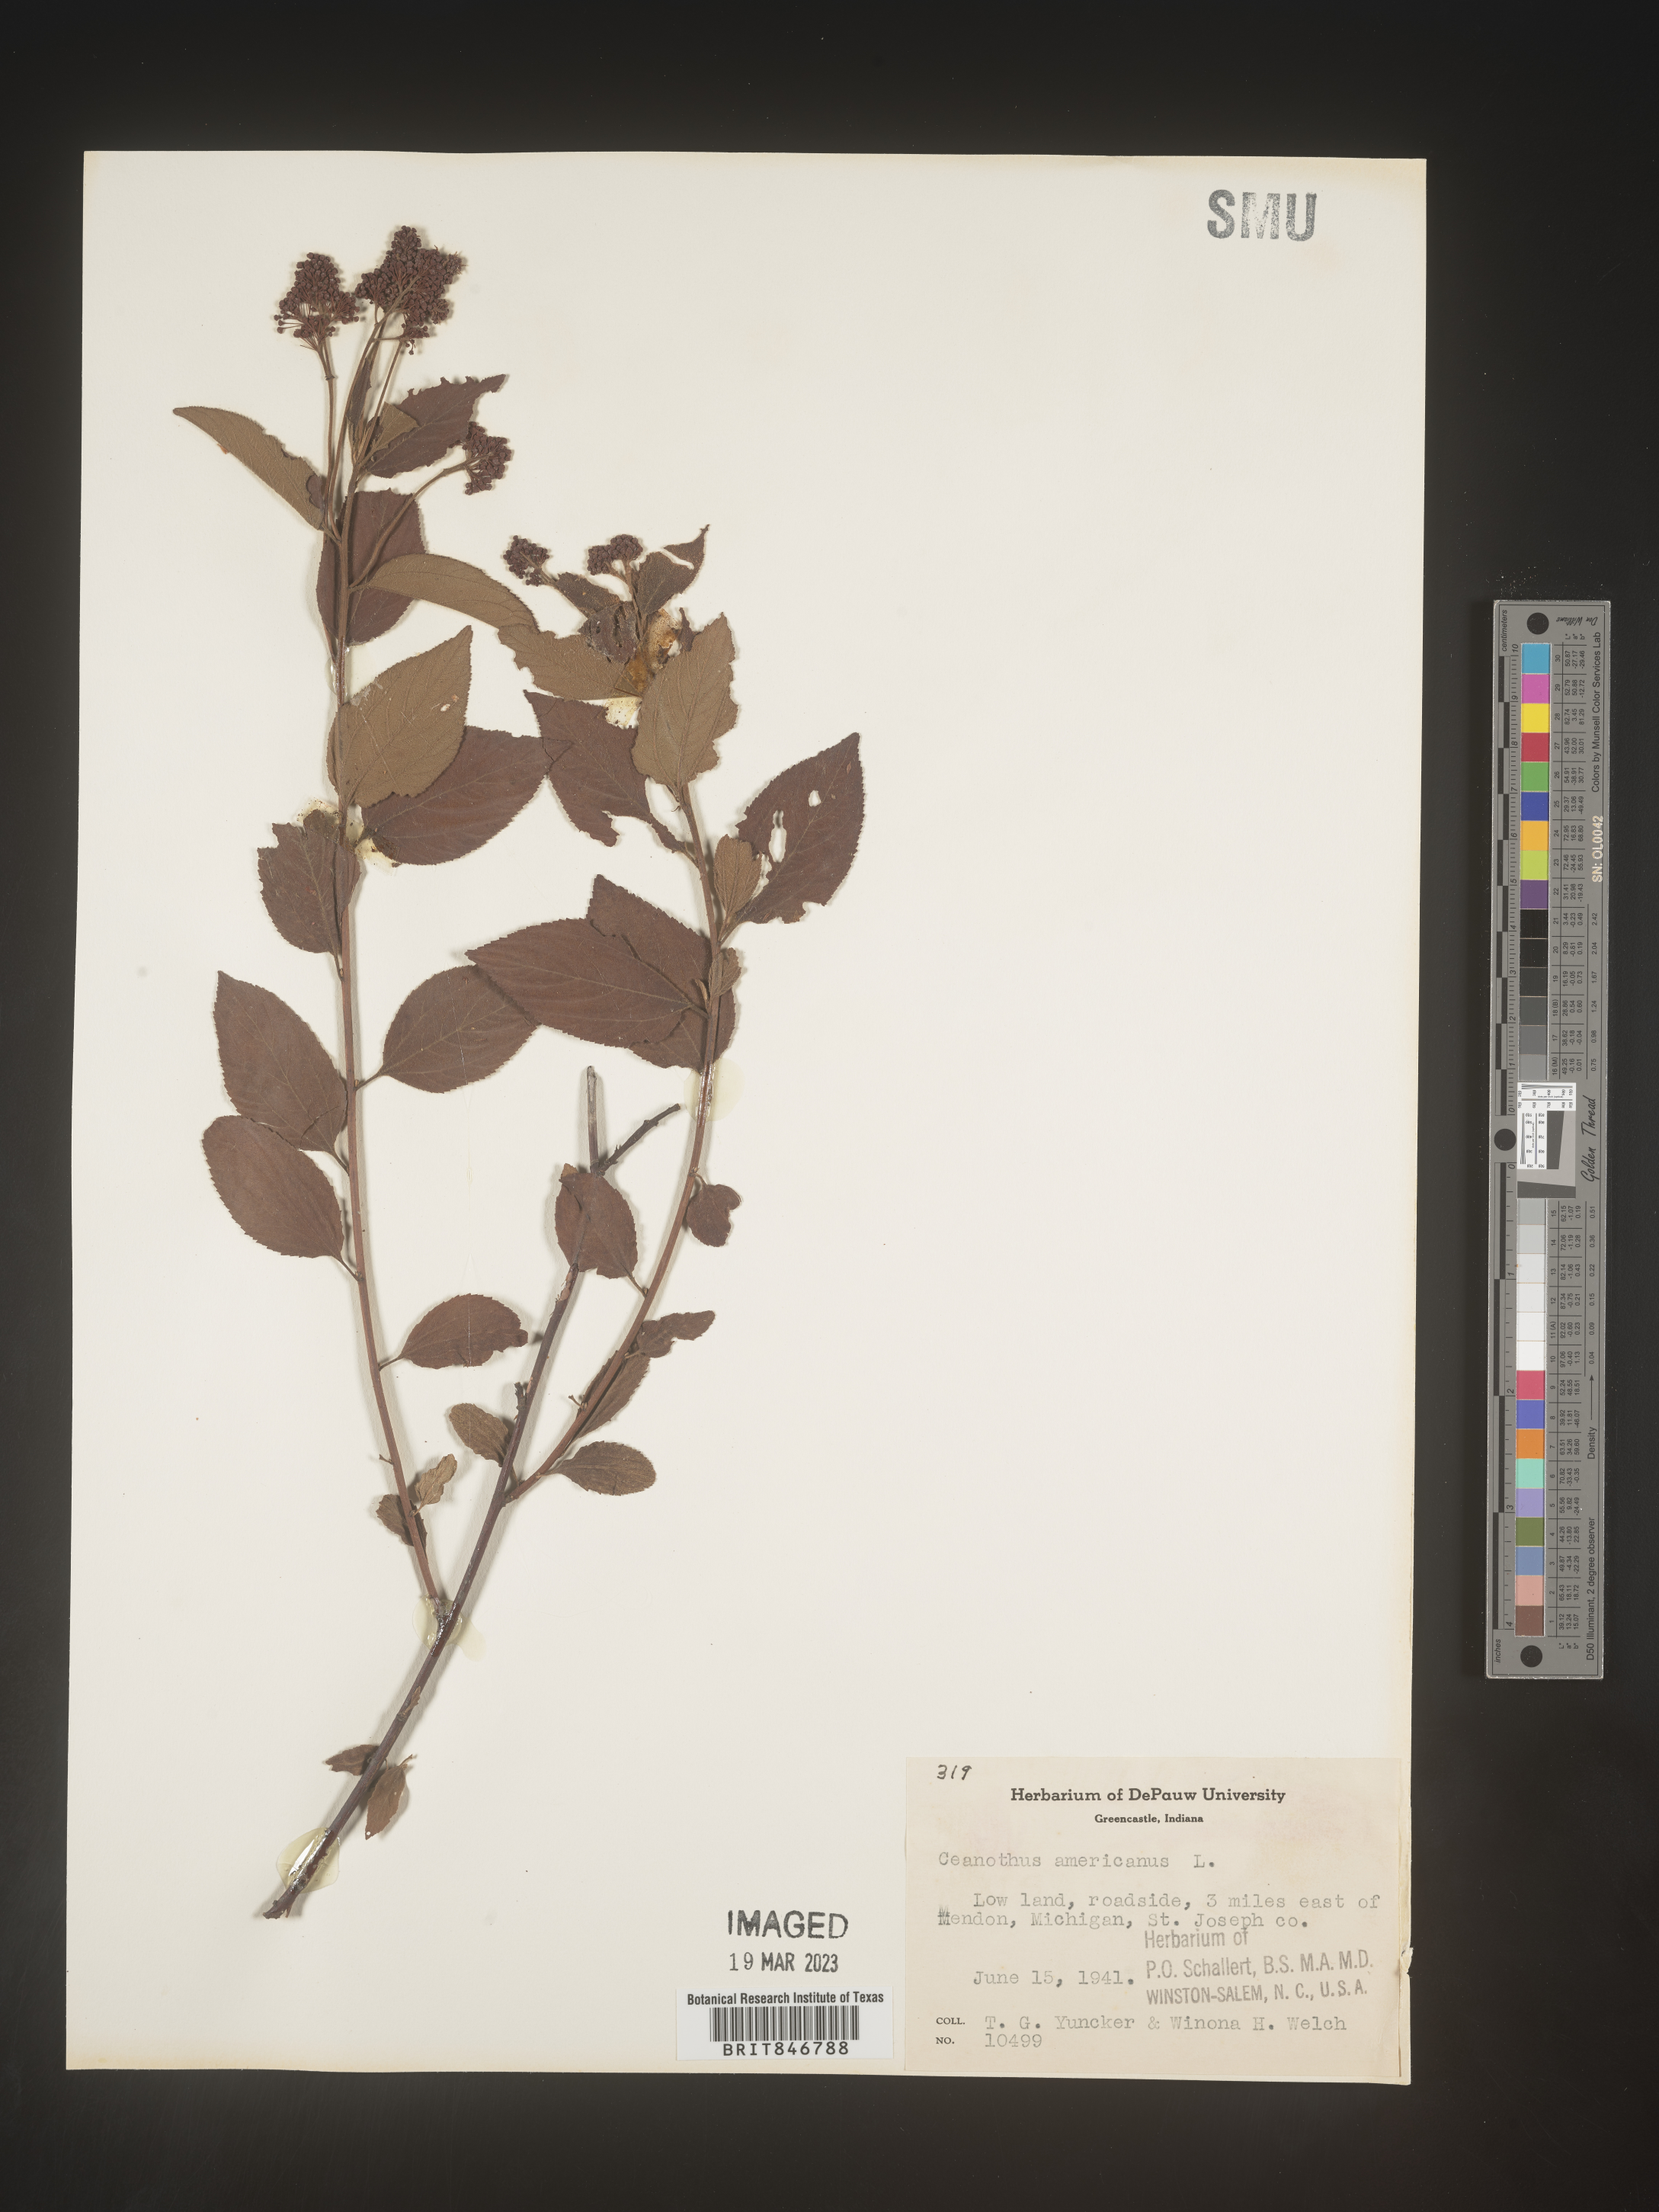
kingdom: Plantae
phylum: Tracheophyta
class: Magnoliopsida
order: Rosales
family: Rhamnaceae
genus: Ceanothus
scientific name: Ceanothus americanus
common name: Redroot
